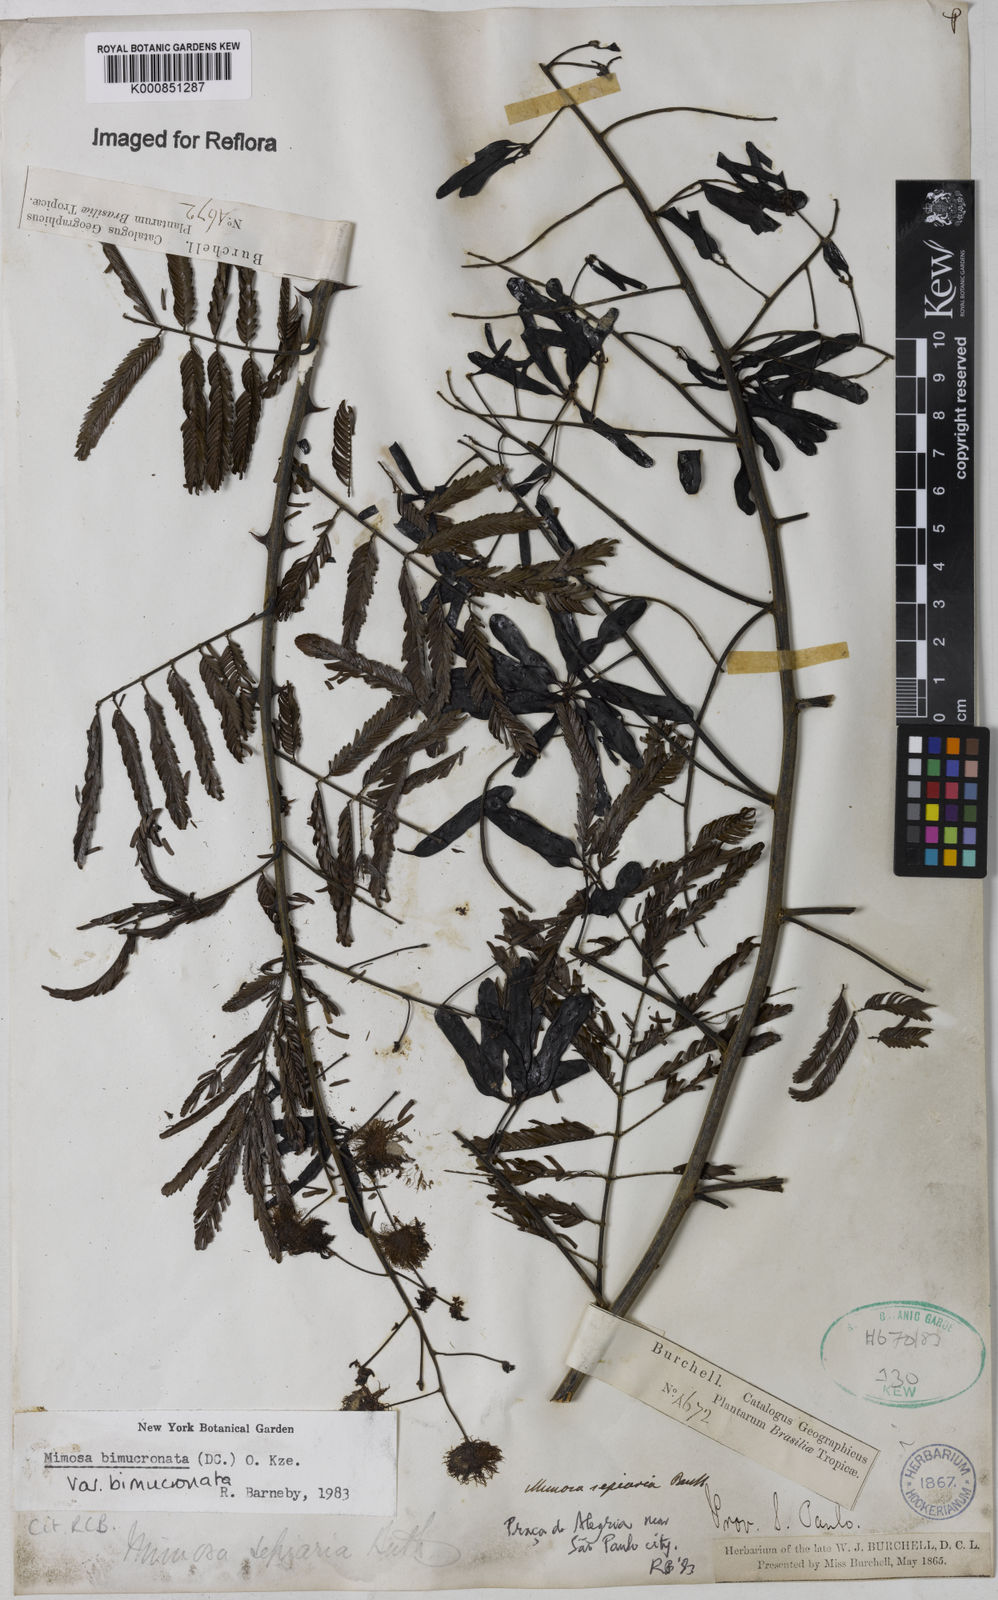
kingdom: Plantae
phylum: Tracheophyta
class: Magnoliopsida
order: Fabales
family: Fabaceae
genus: Mimosa
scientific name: Mimosa bimucronata
